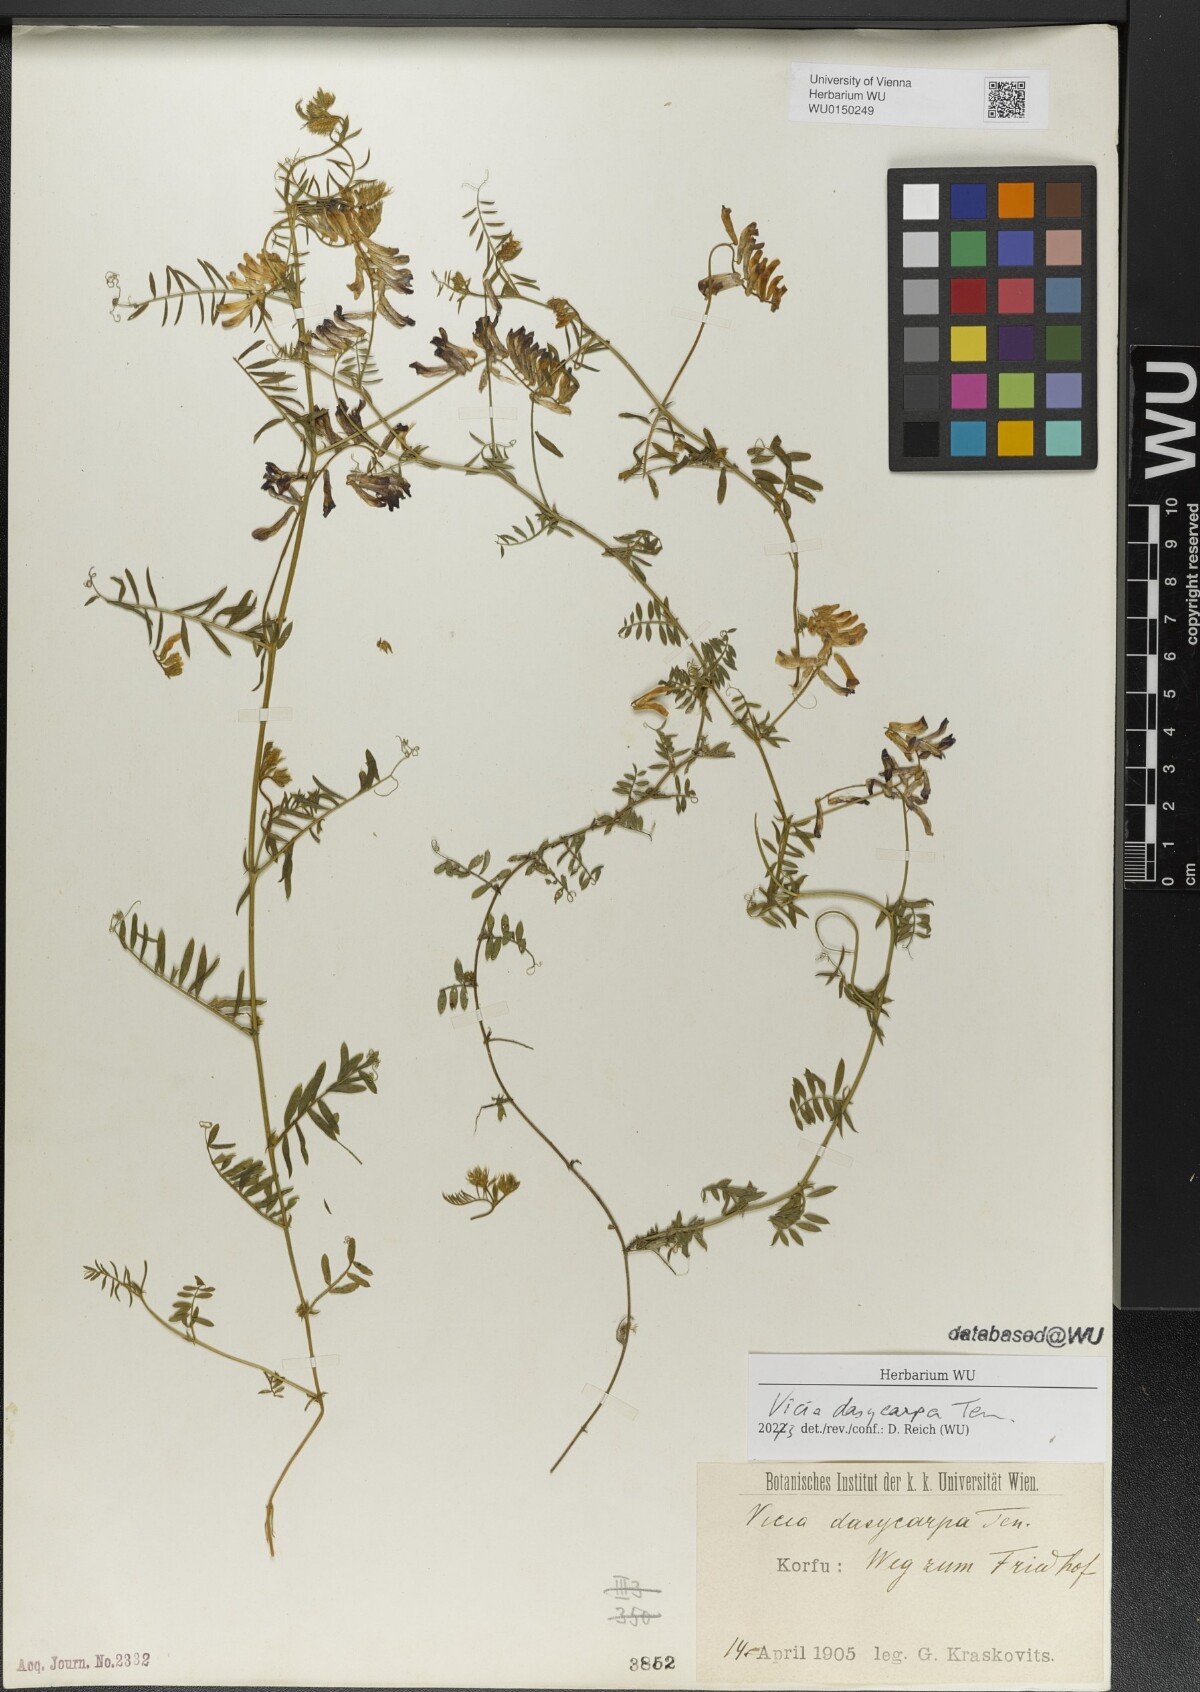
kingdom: Plantae
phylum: Tracheophyta
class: Magnoliopsida
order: Fabales
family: Fabaceae
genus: Vicia
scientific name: Vicia villosa
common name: Fodder vetch
